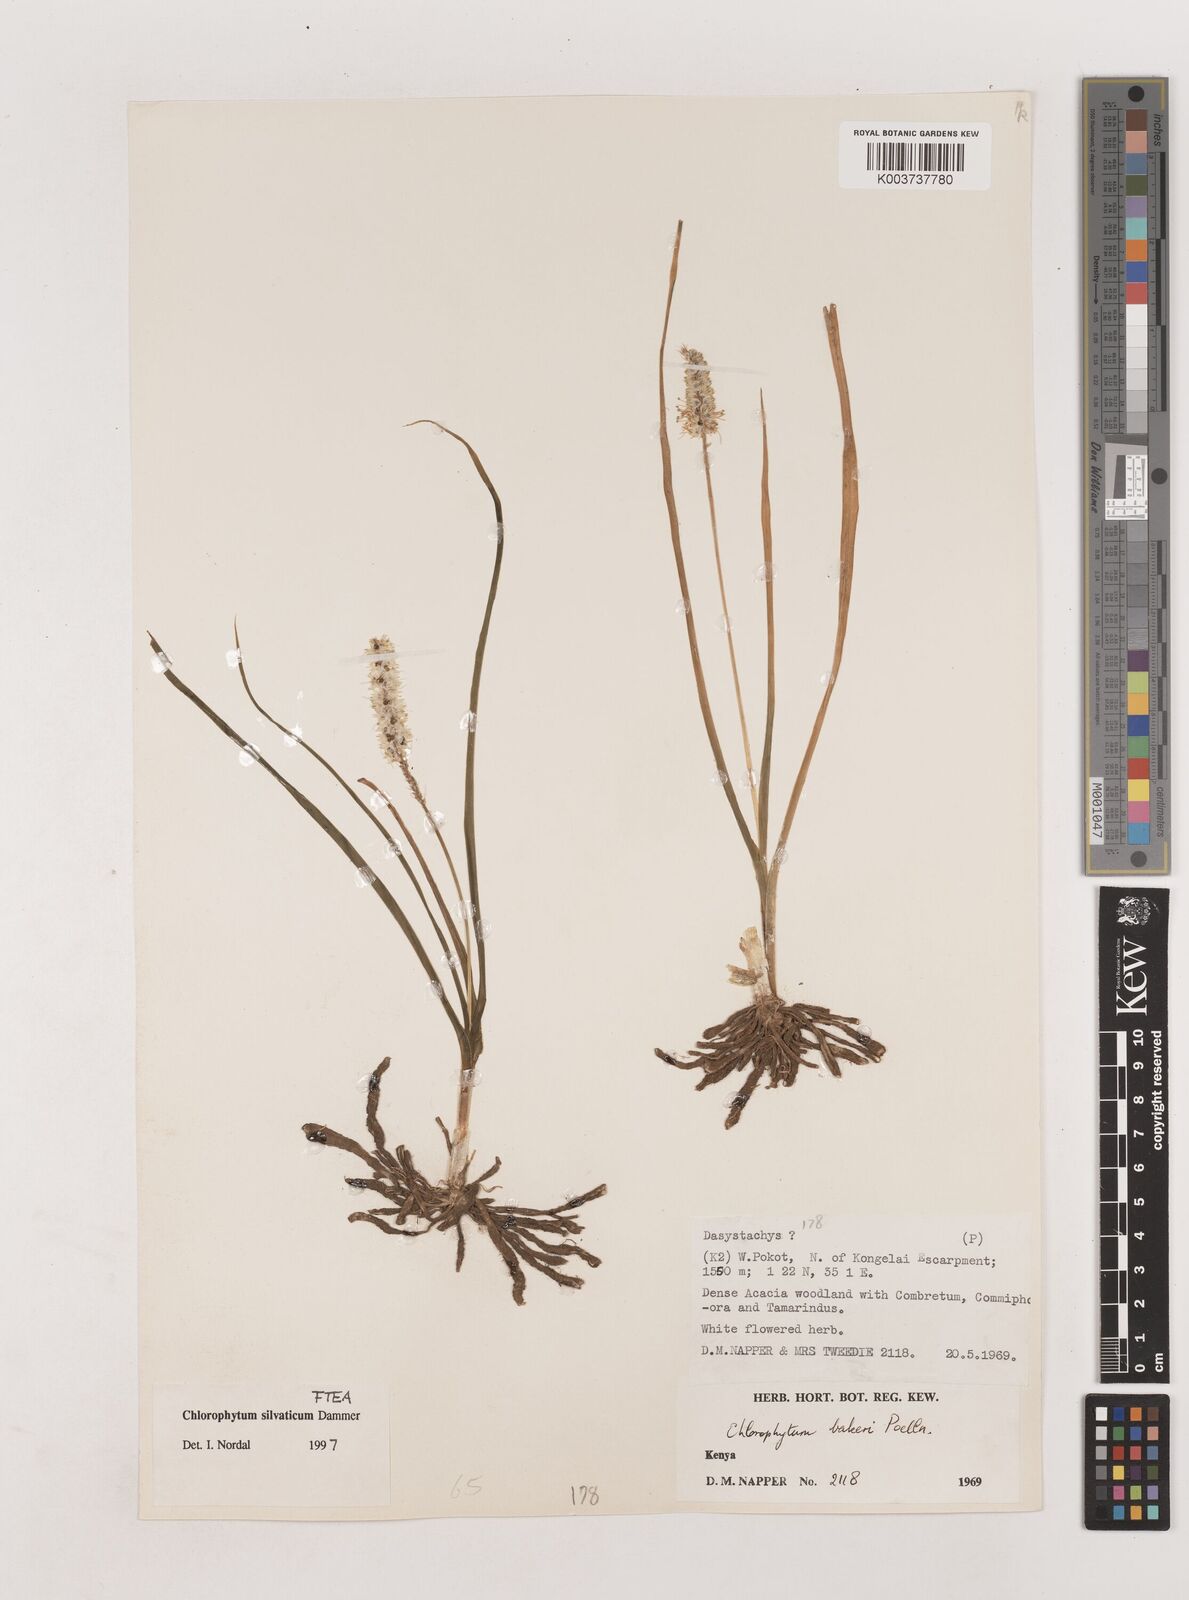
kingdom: Plantae
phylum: Tracheophyta
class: Liliopsida
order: Asparagales
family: Asparagaceae
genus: Chlorophytum
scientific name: Chlorophytum africanum
